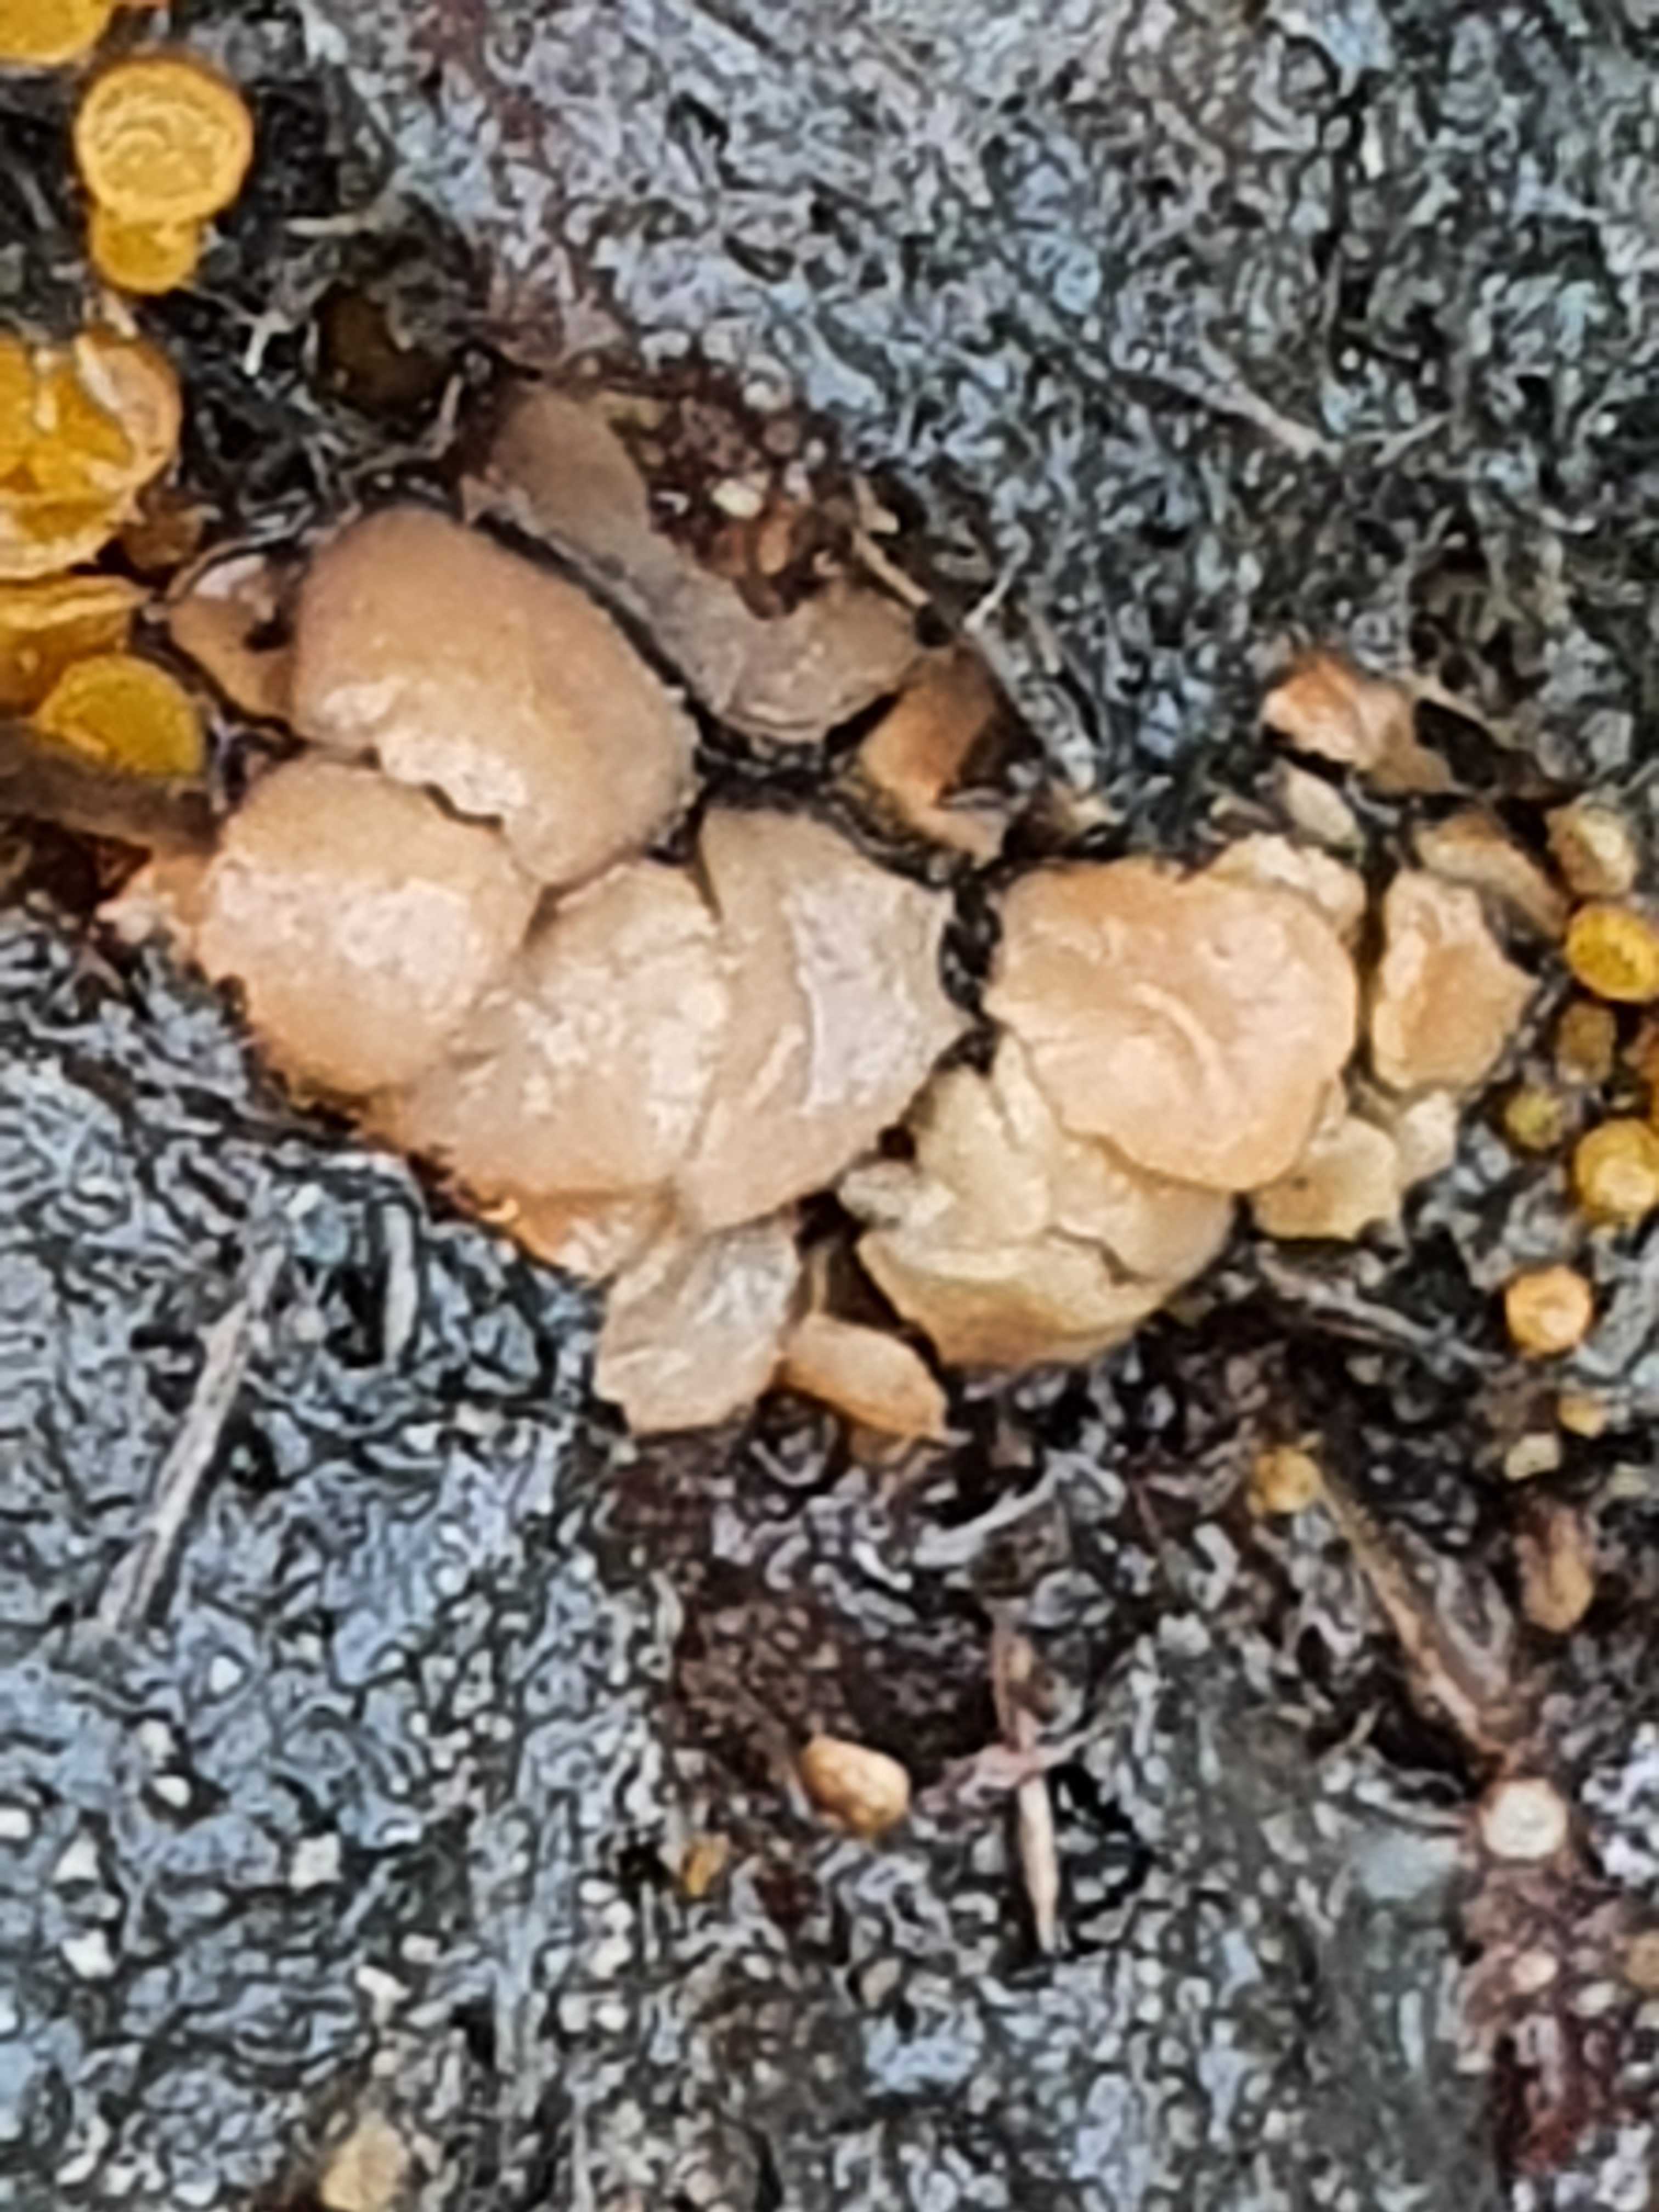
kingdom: Fungi
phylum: Ascomycota
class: Pezizomycetes
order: Pezizales
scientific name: Pezizales
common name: bægersvampordenen
